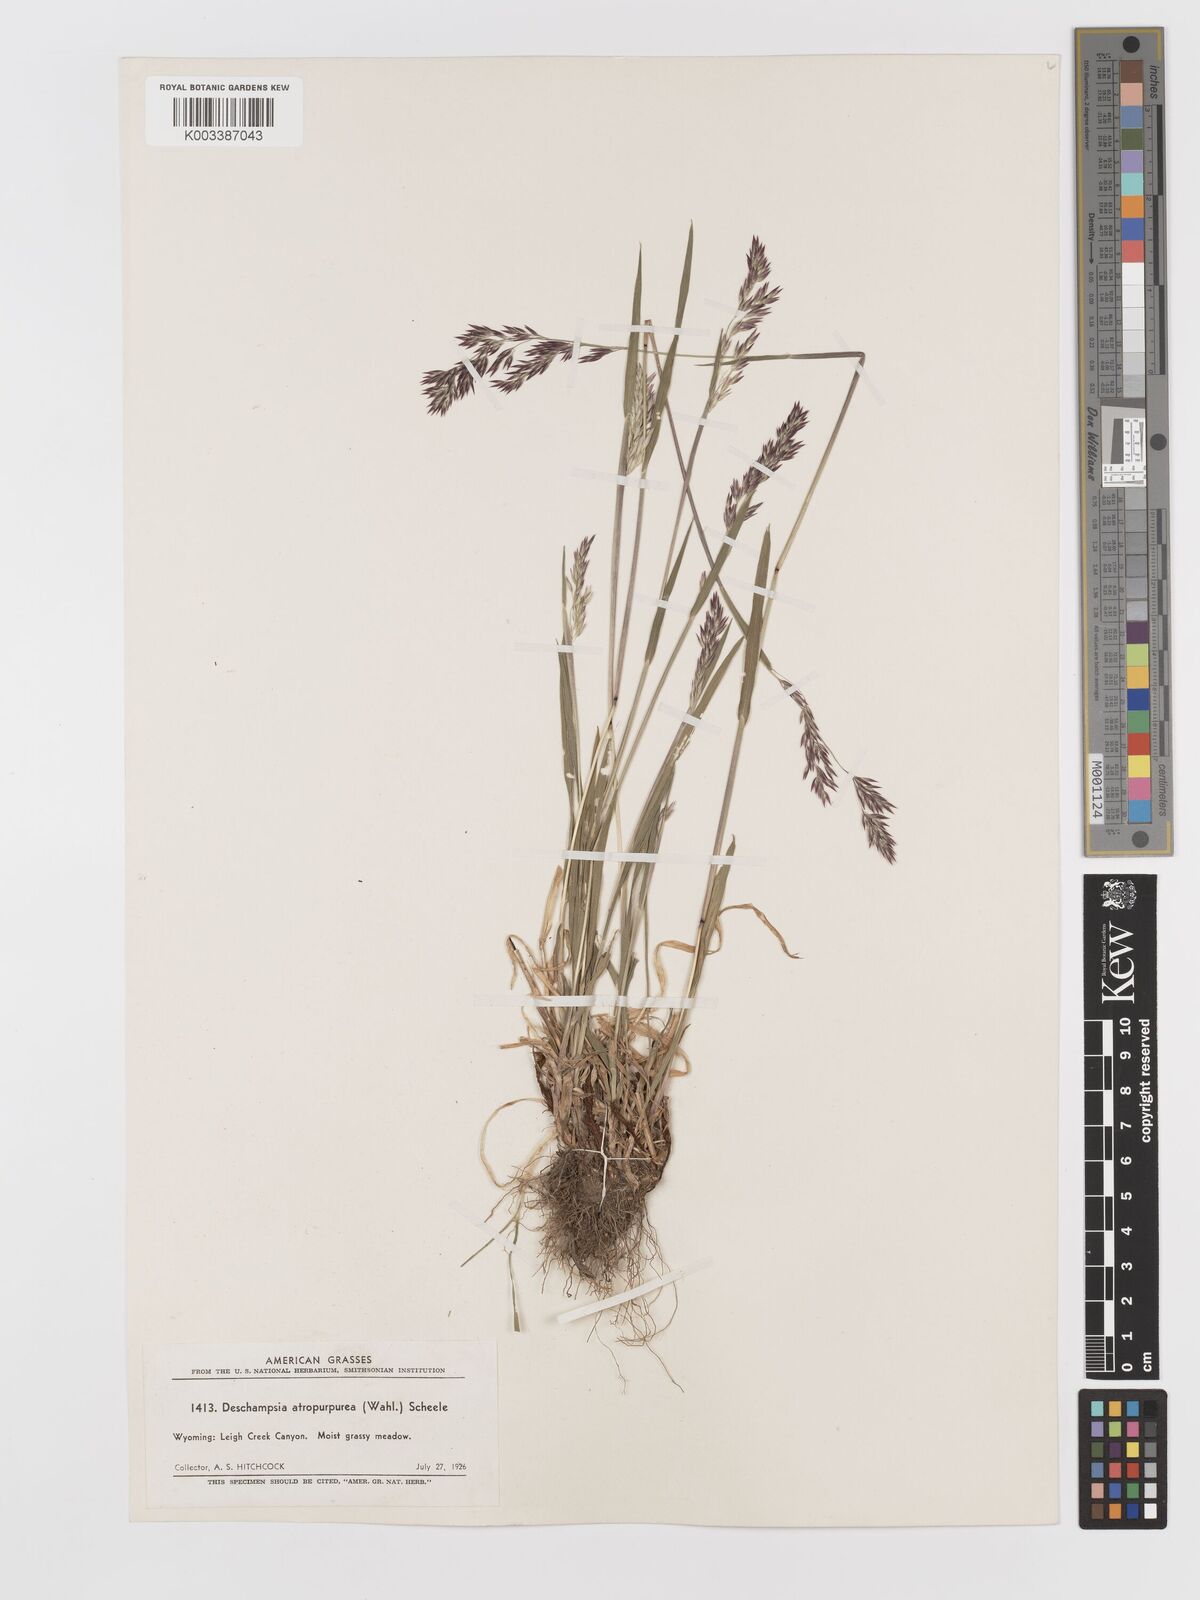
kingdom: Plantae
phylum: Tracheophyta
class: Liliopsida
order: Poales
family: Poaceae
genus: Vahlodea
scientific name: Vahlodea atropurpurea
